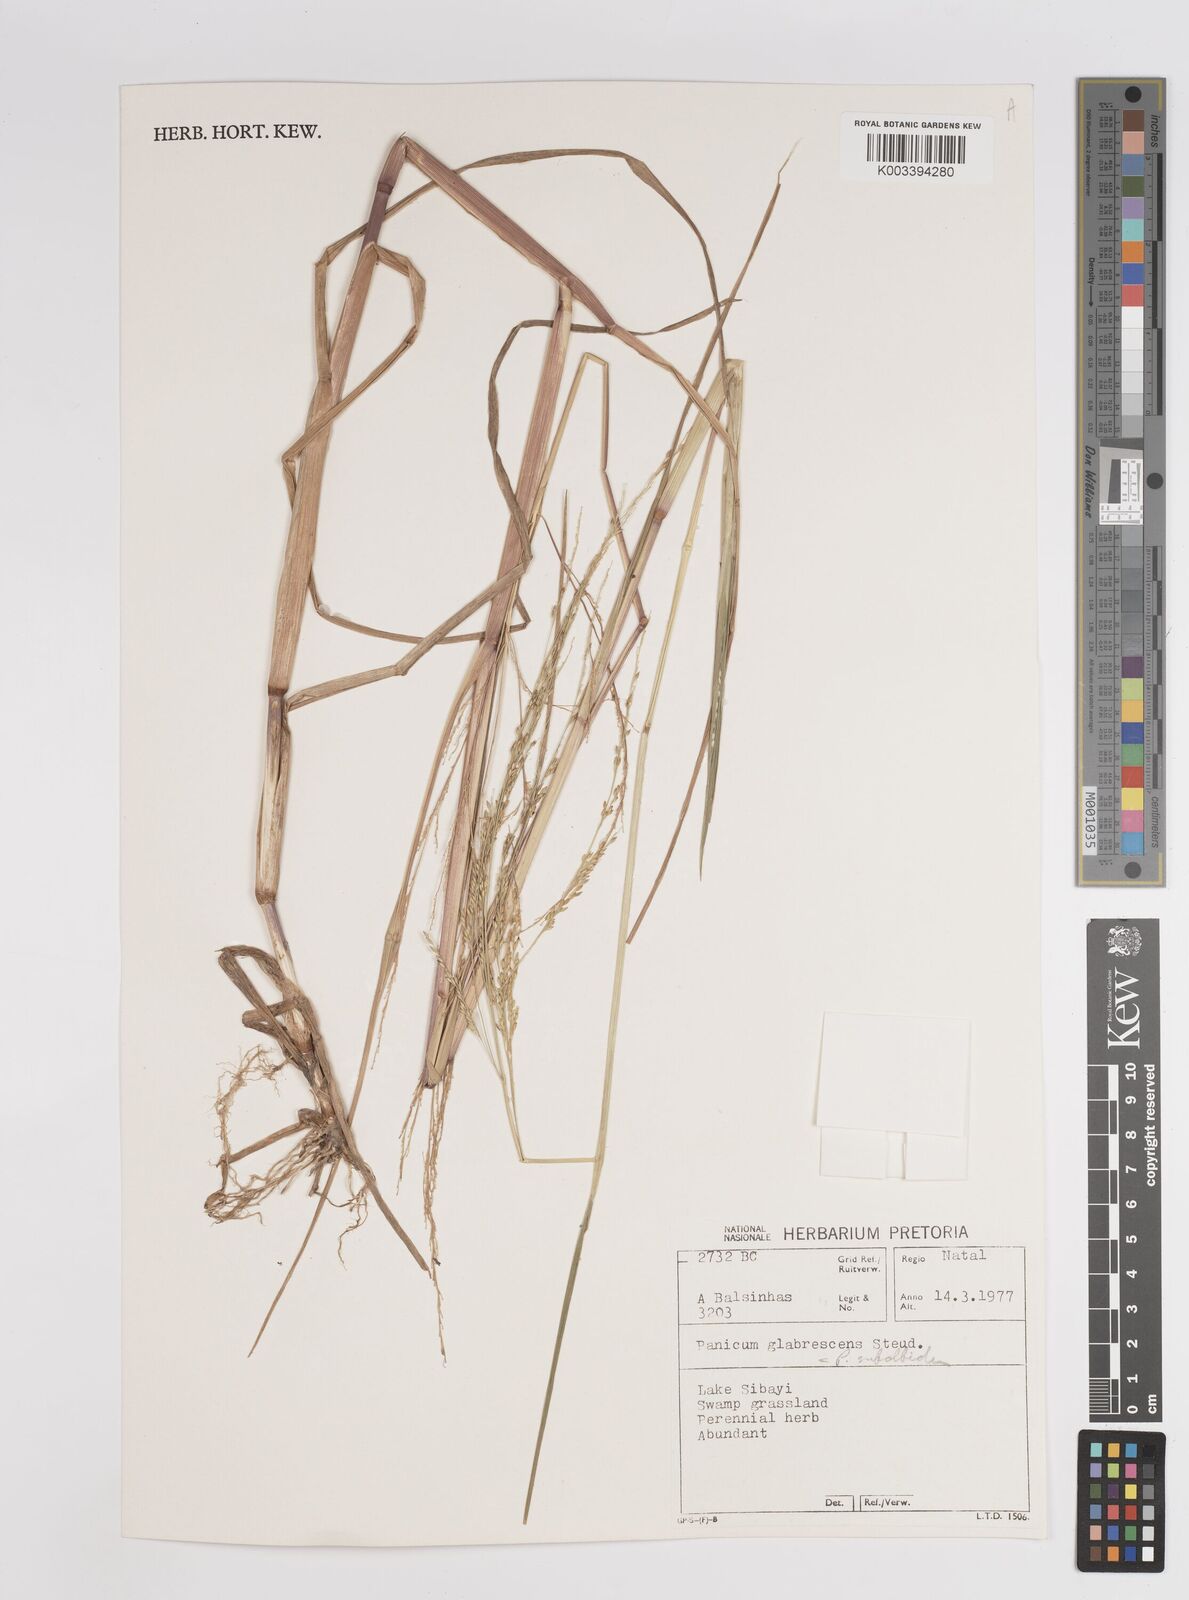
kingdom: Plantae
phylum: Tracheophyta
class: Liliopsida
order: Poales
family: Poaceae
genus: Panicum
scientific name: Panicum subalbidum
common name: Elbow buffalo grass
